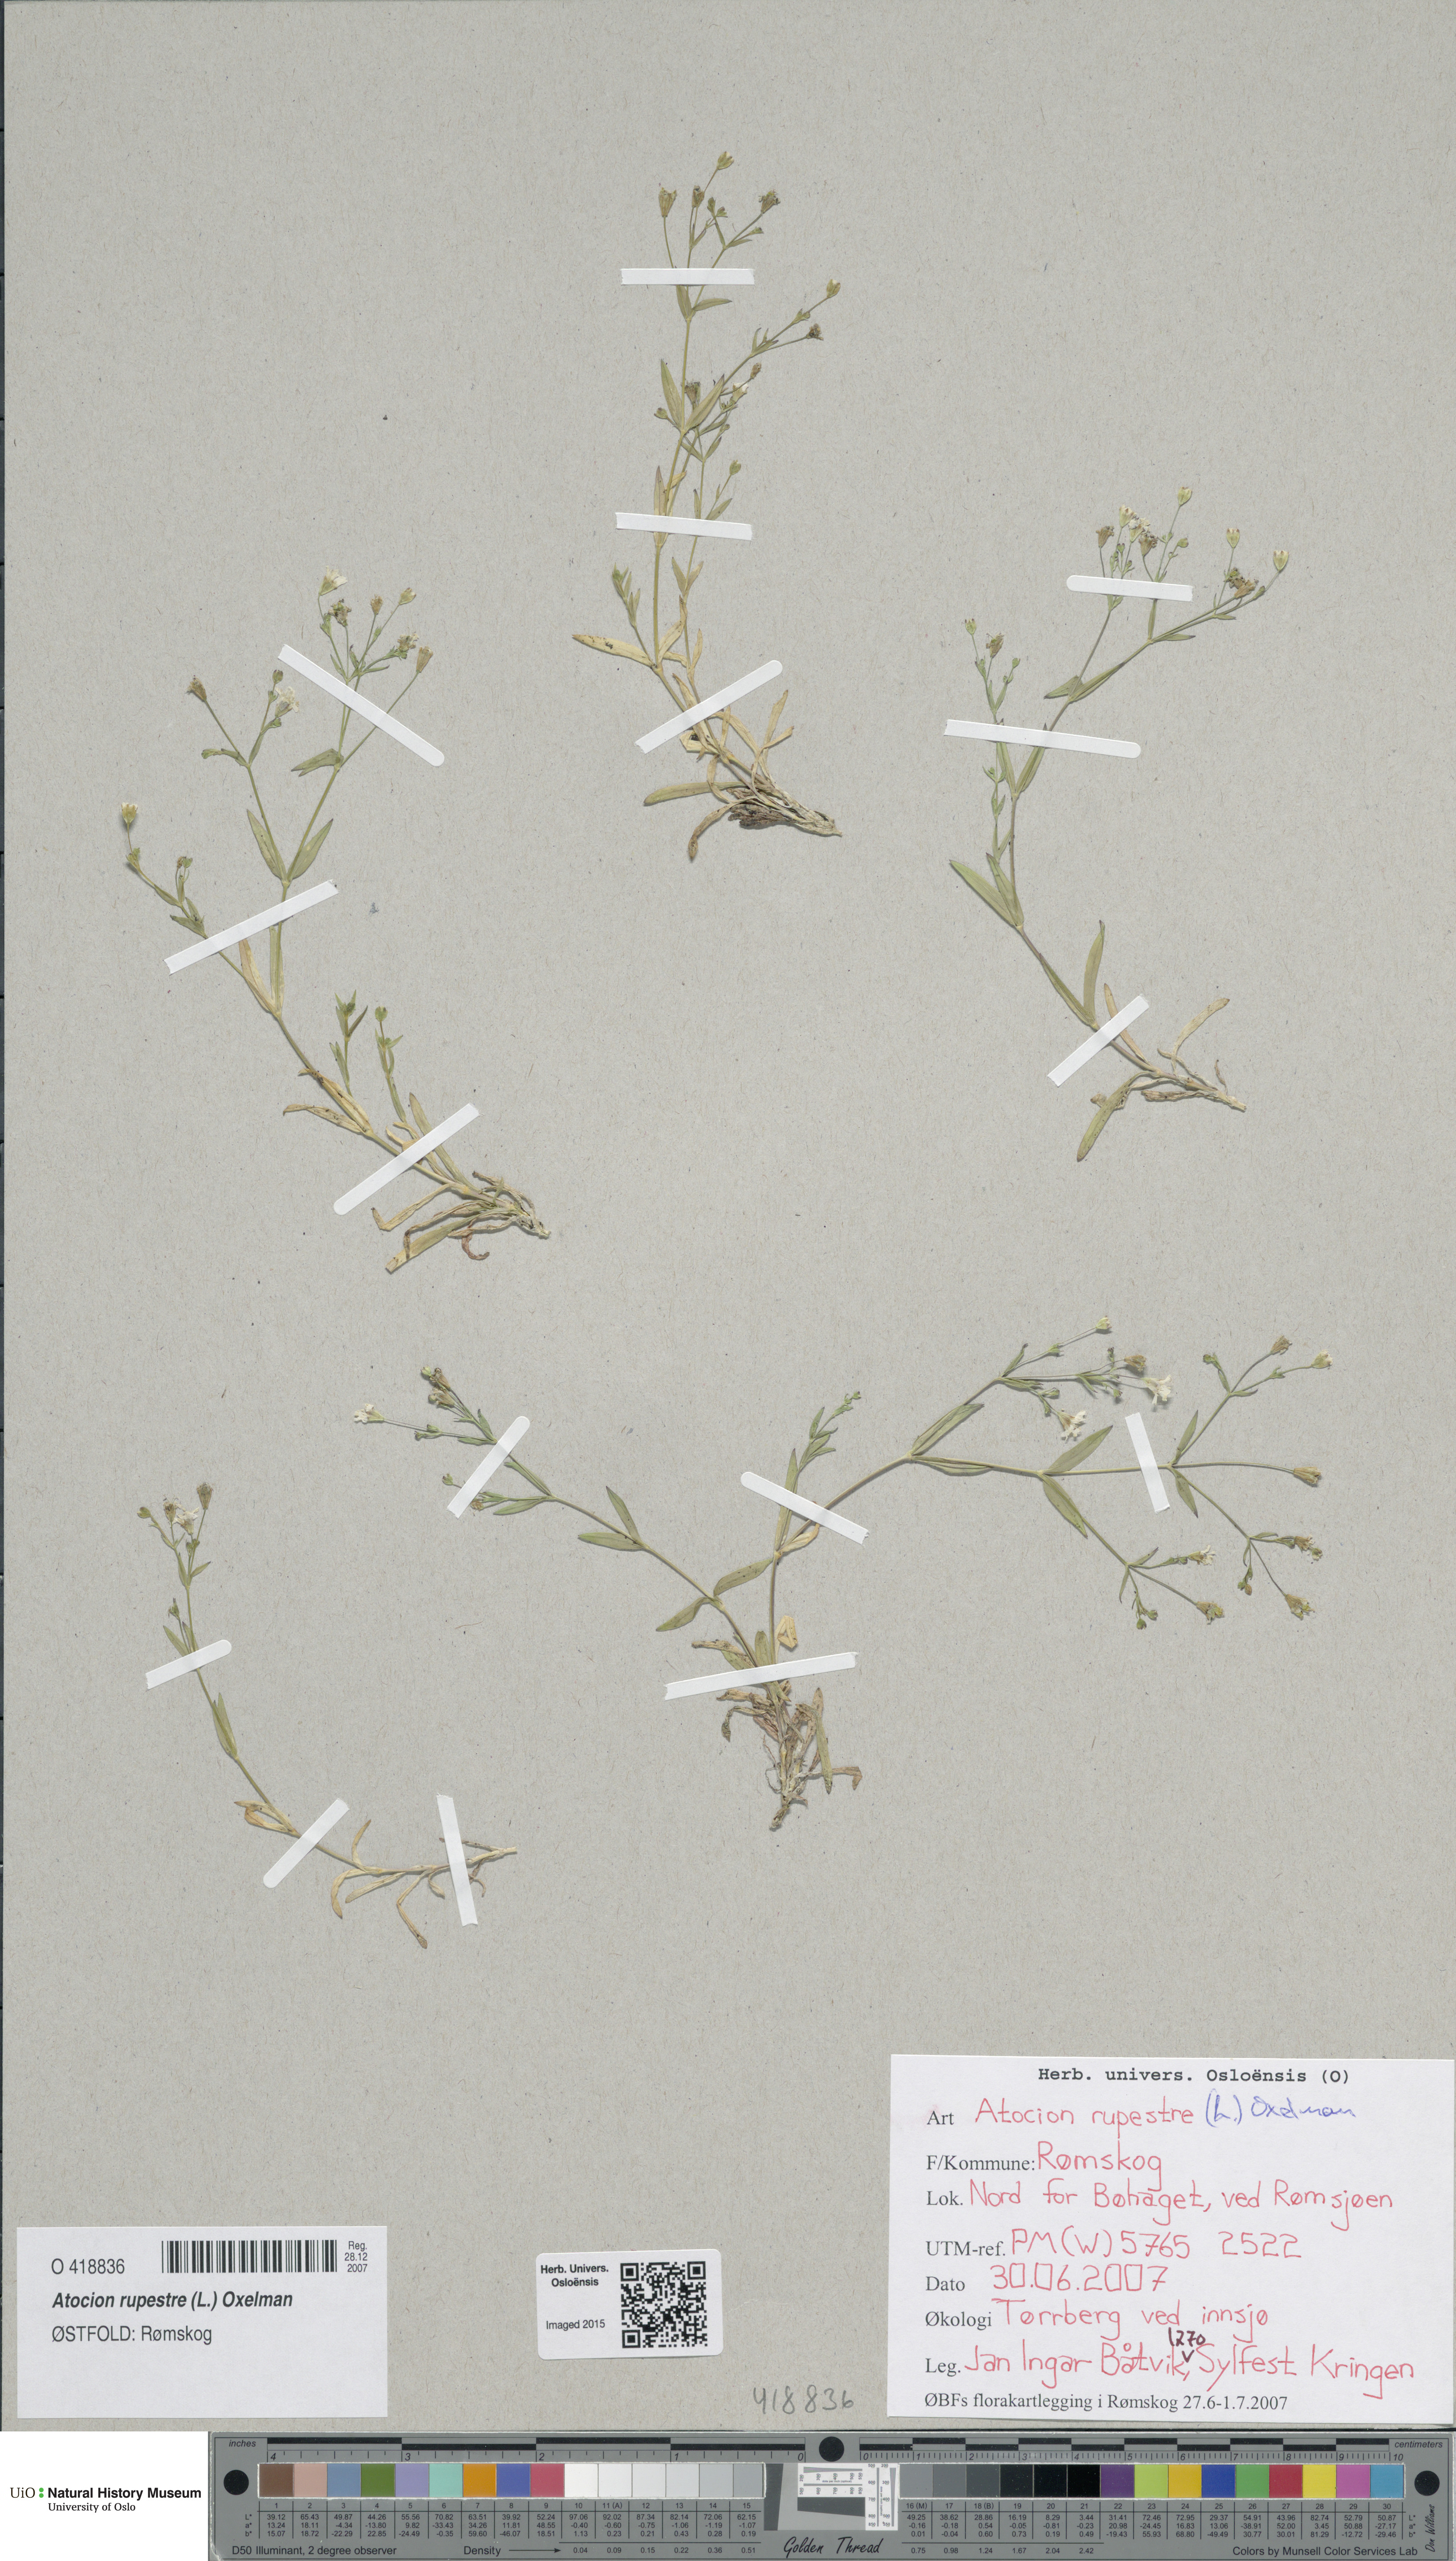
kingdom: Plantae
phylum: Tracheophyta
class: Magnoliopsida
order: Caryophyllales
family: Caryophyllaceae
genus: Atocion
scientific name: Atocion rupestre
